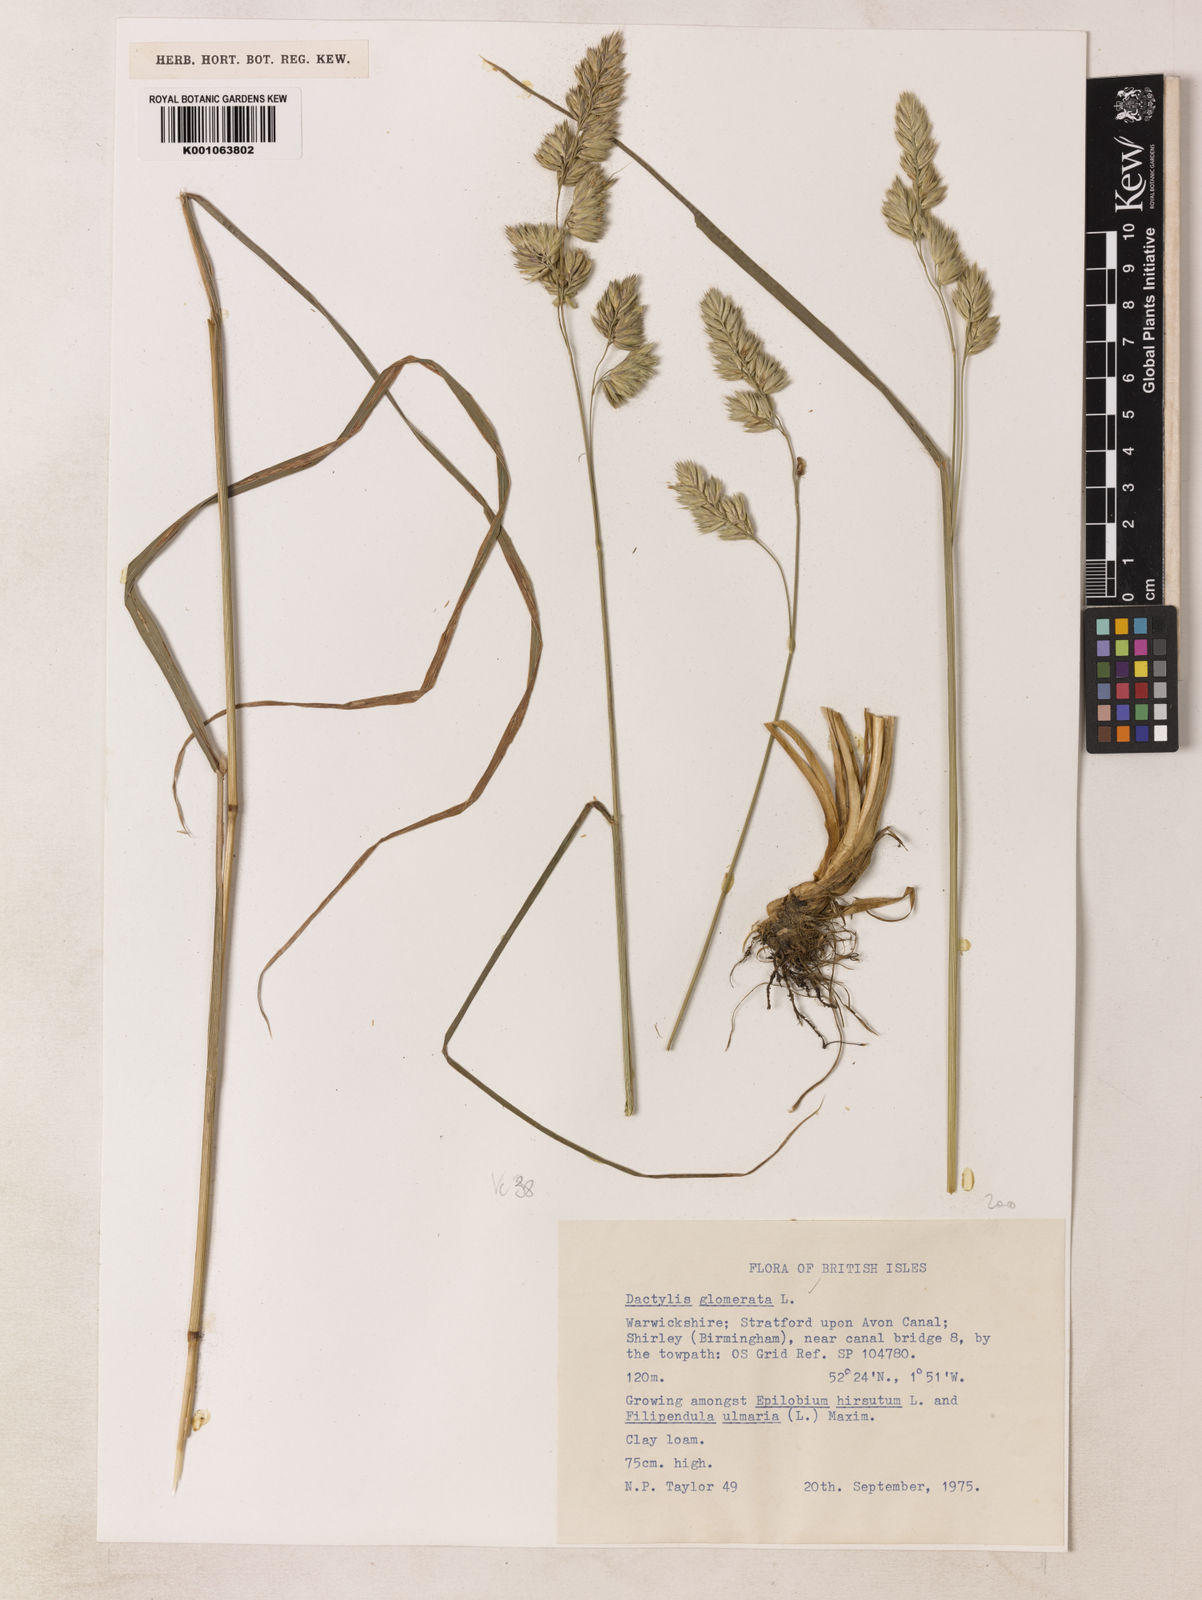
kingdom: Plantae
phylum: Tracheophyta
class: Liliopsida
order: Poales
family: Poaceae
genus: Dactylis
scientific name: Dactylis glomerata
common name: Orchardgrass
